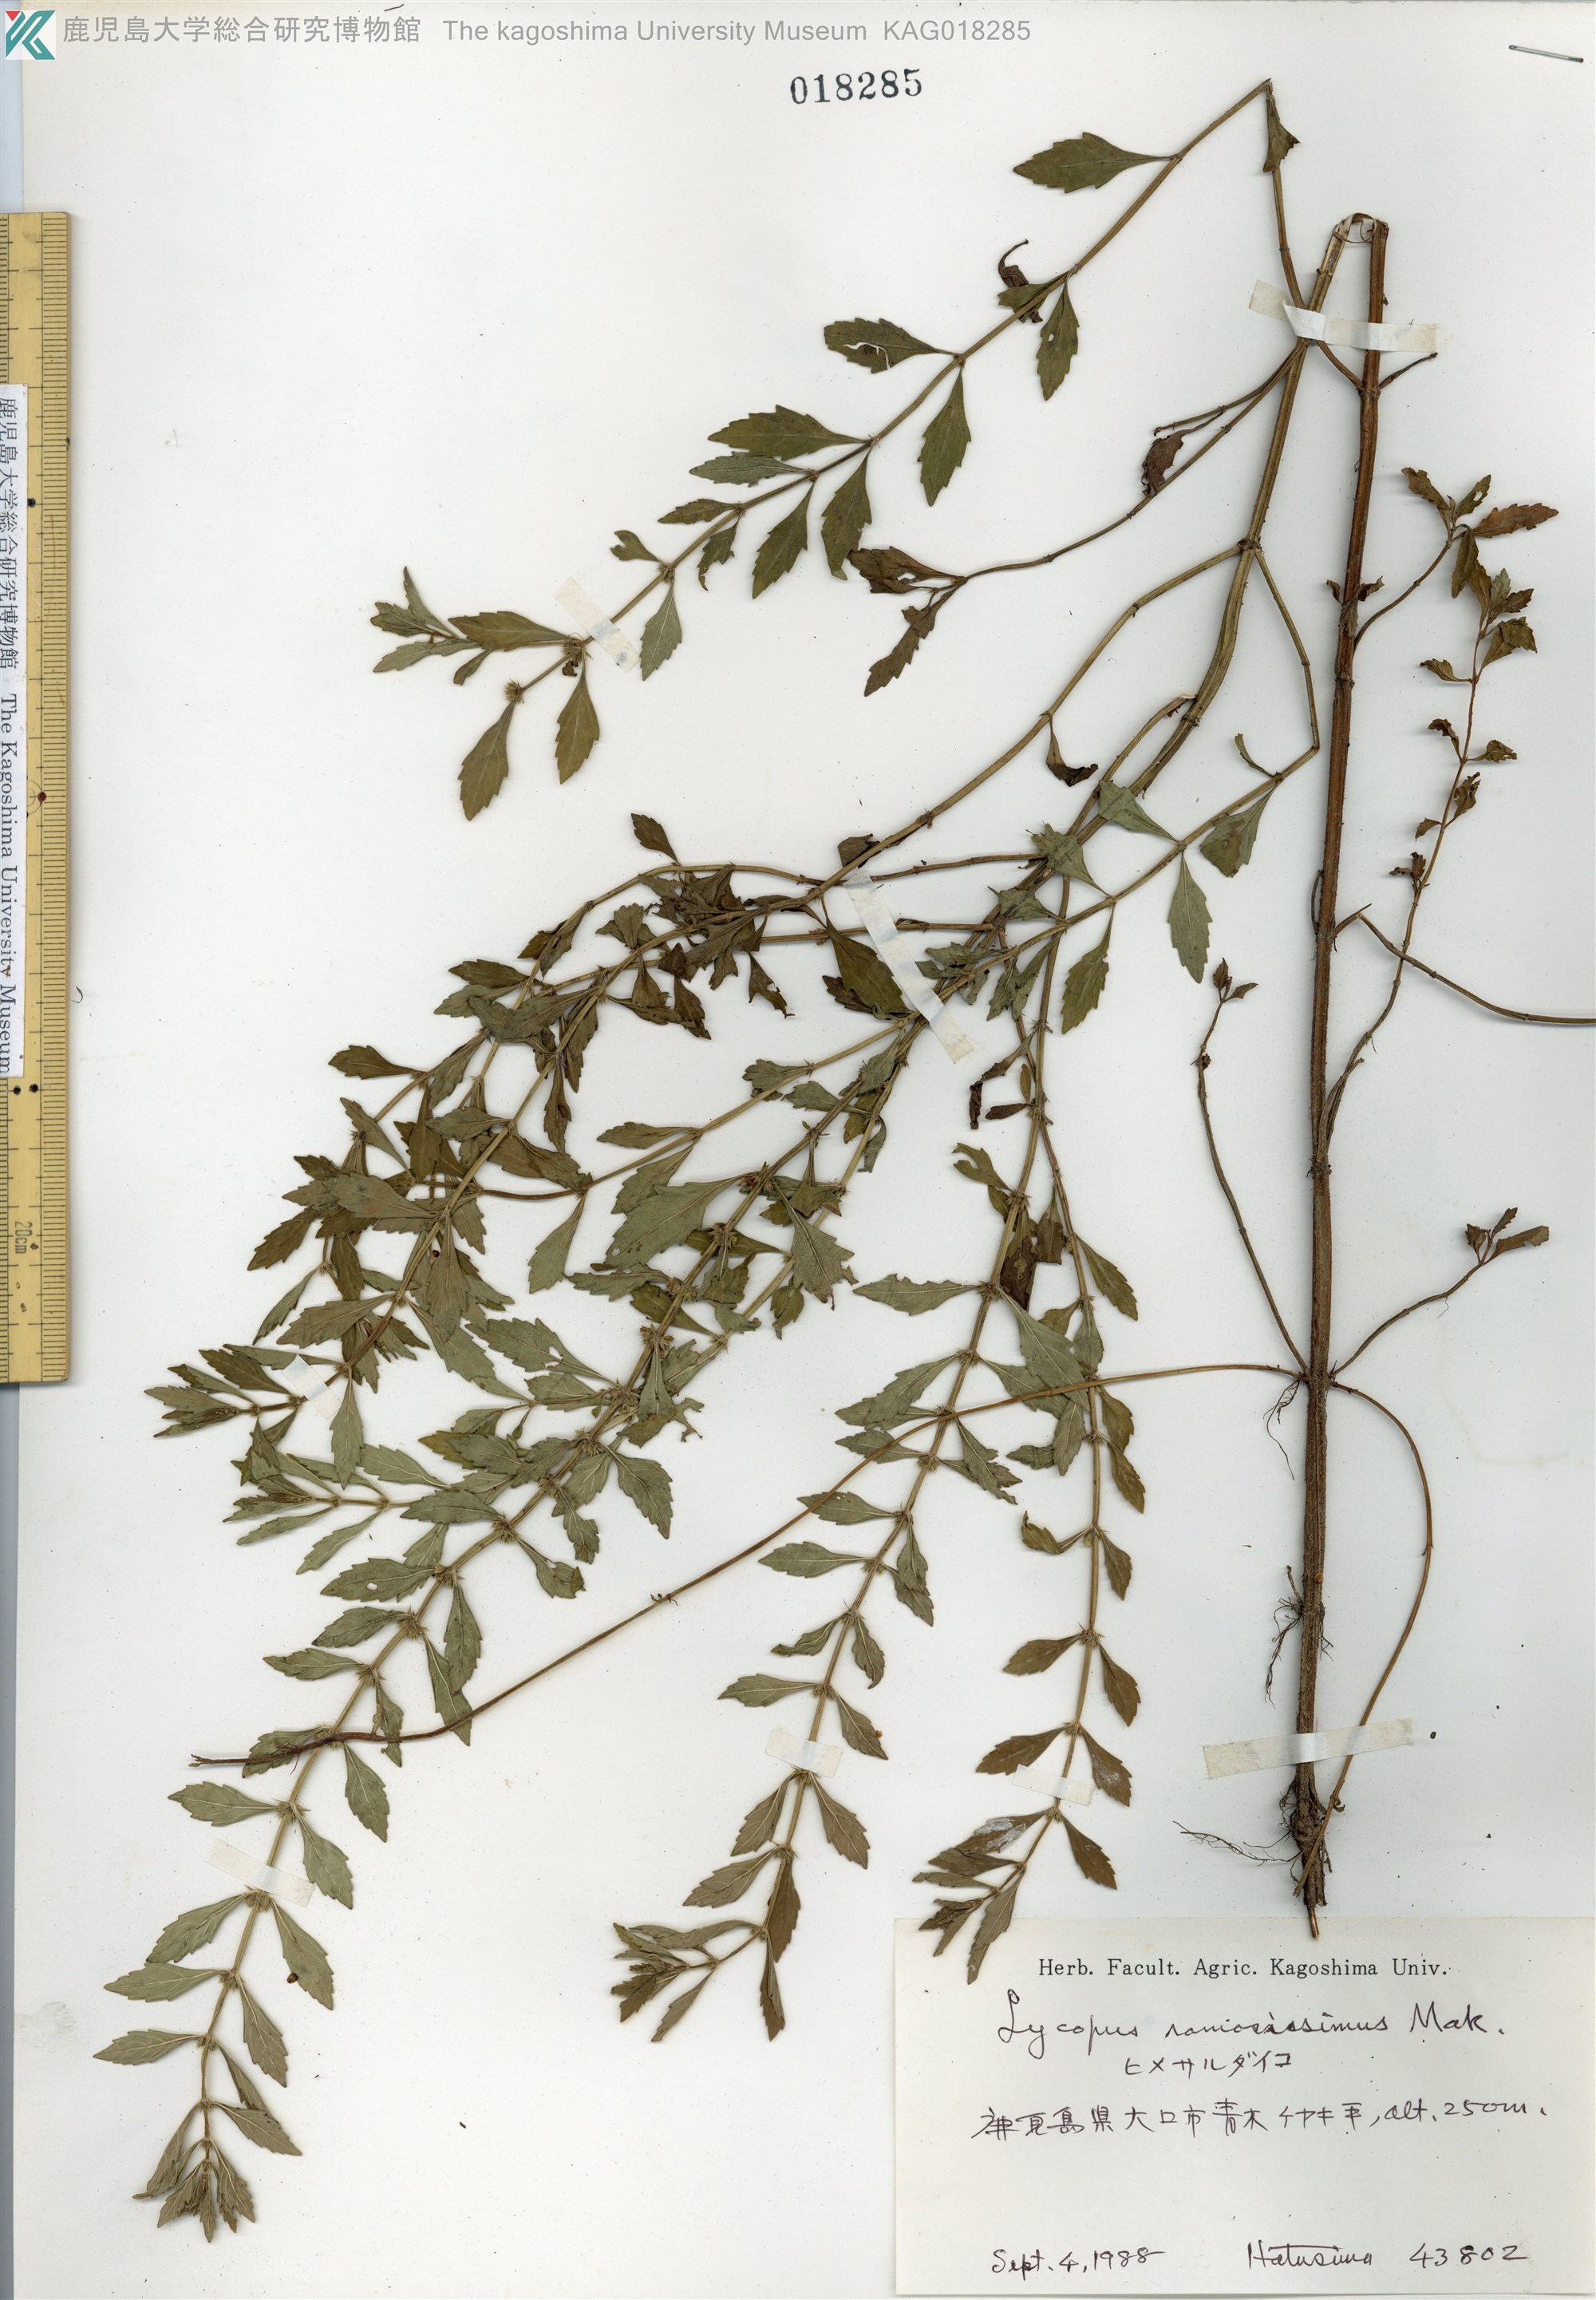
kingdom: Plantae
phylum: Tracheophyta
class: Magnoliopsida
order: Lamiales
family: Lamiaceae
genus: Lycopus
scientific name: Lycopus cavaleriei
